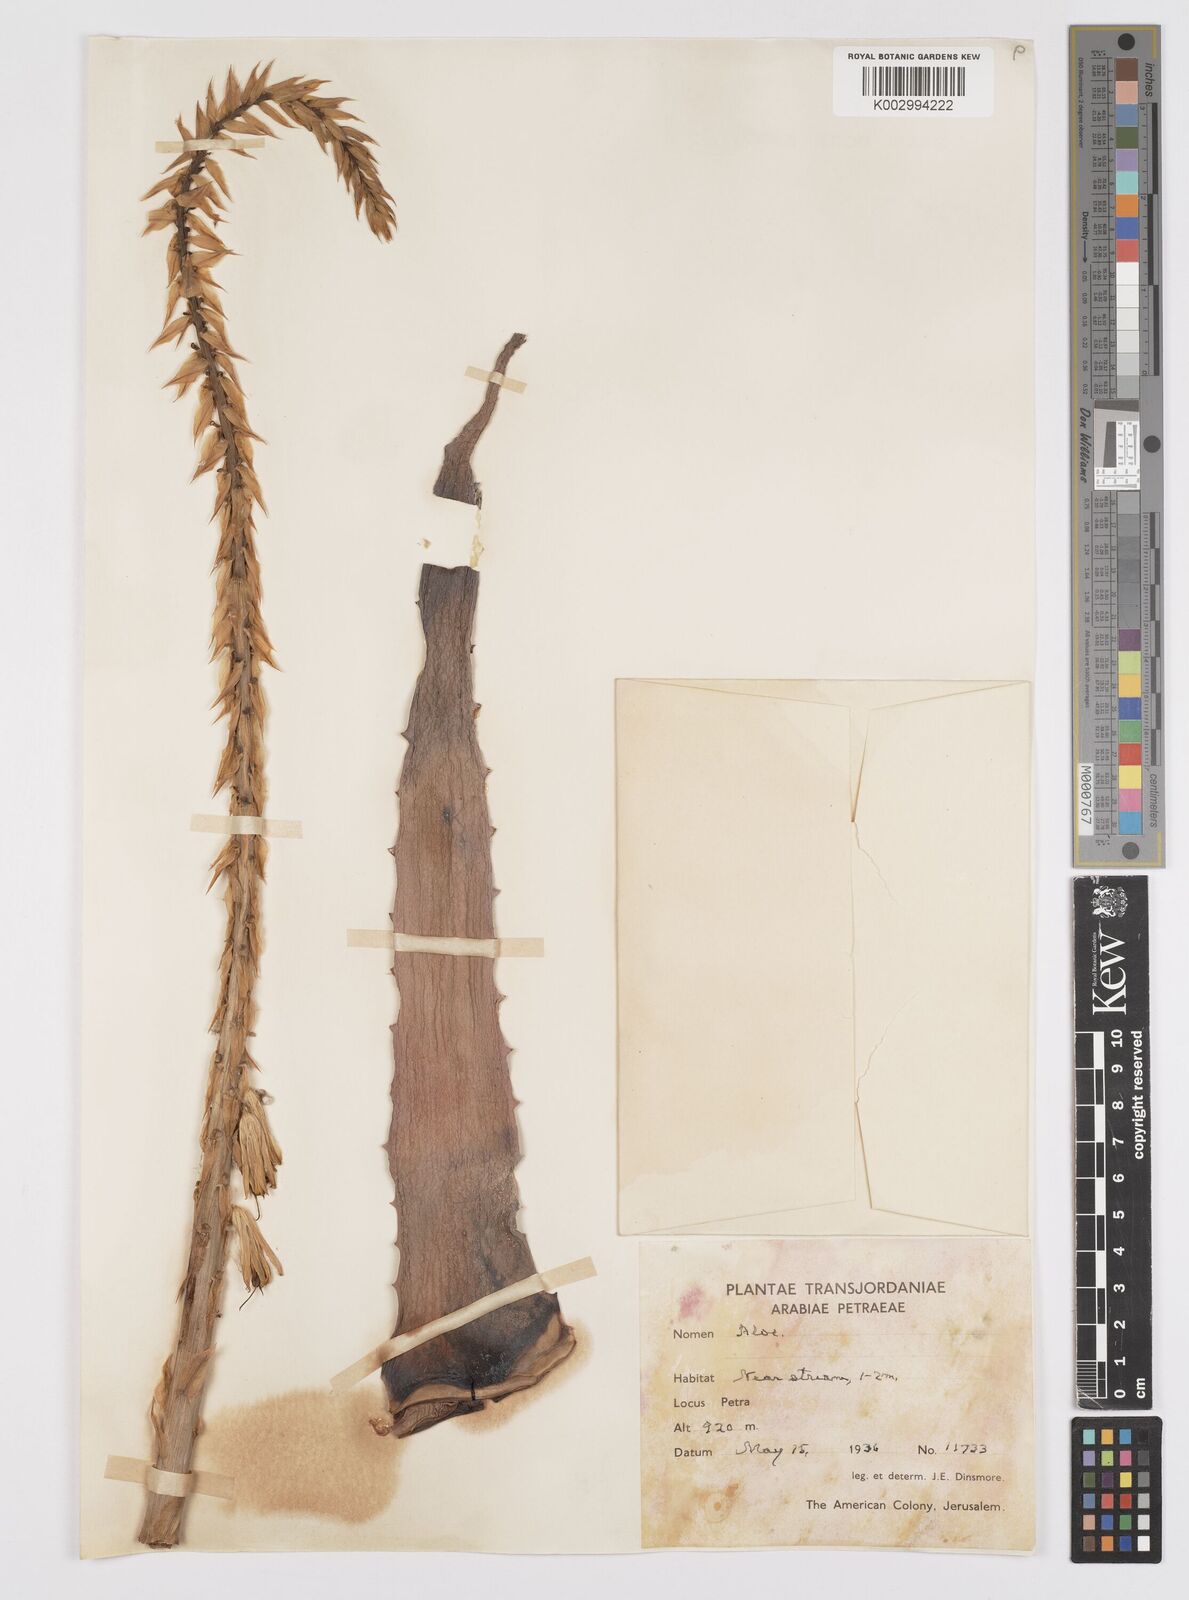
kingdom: Plantae
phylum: Tracheophyta
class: Liliopsida
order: Asparagales
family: Asphodelaceae
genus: Aloe
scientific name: Aloe
